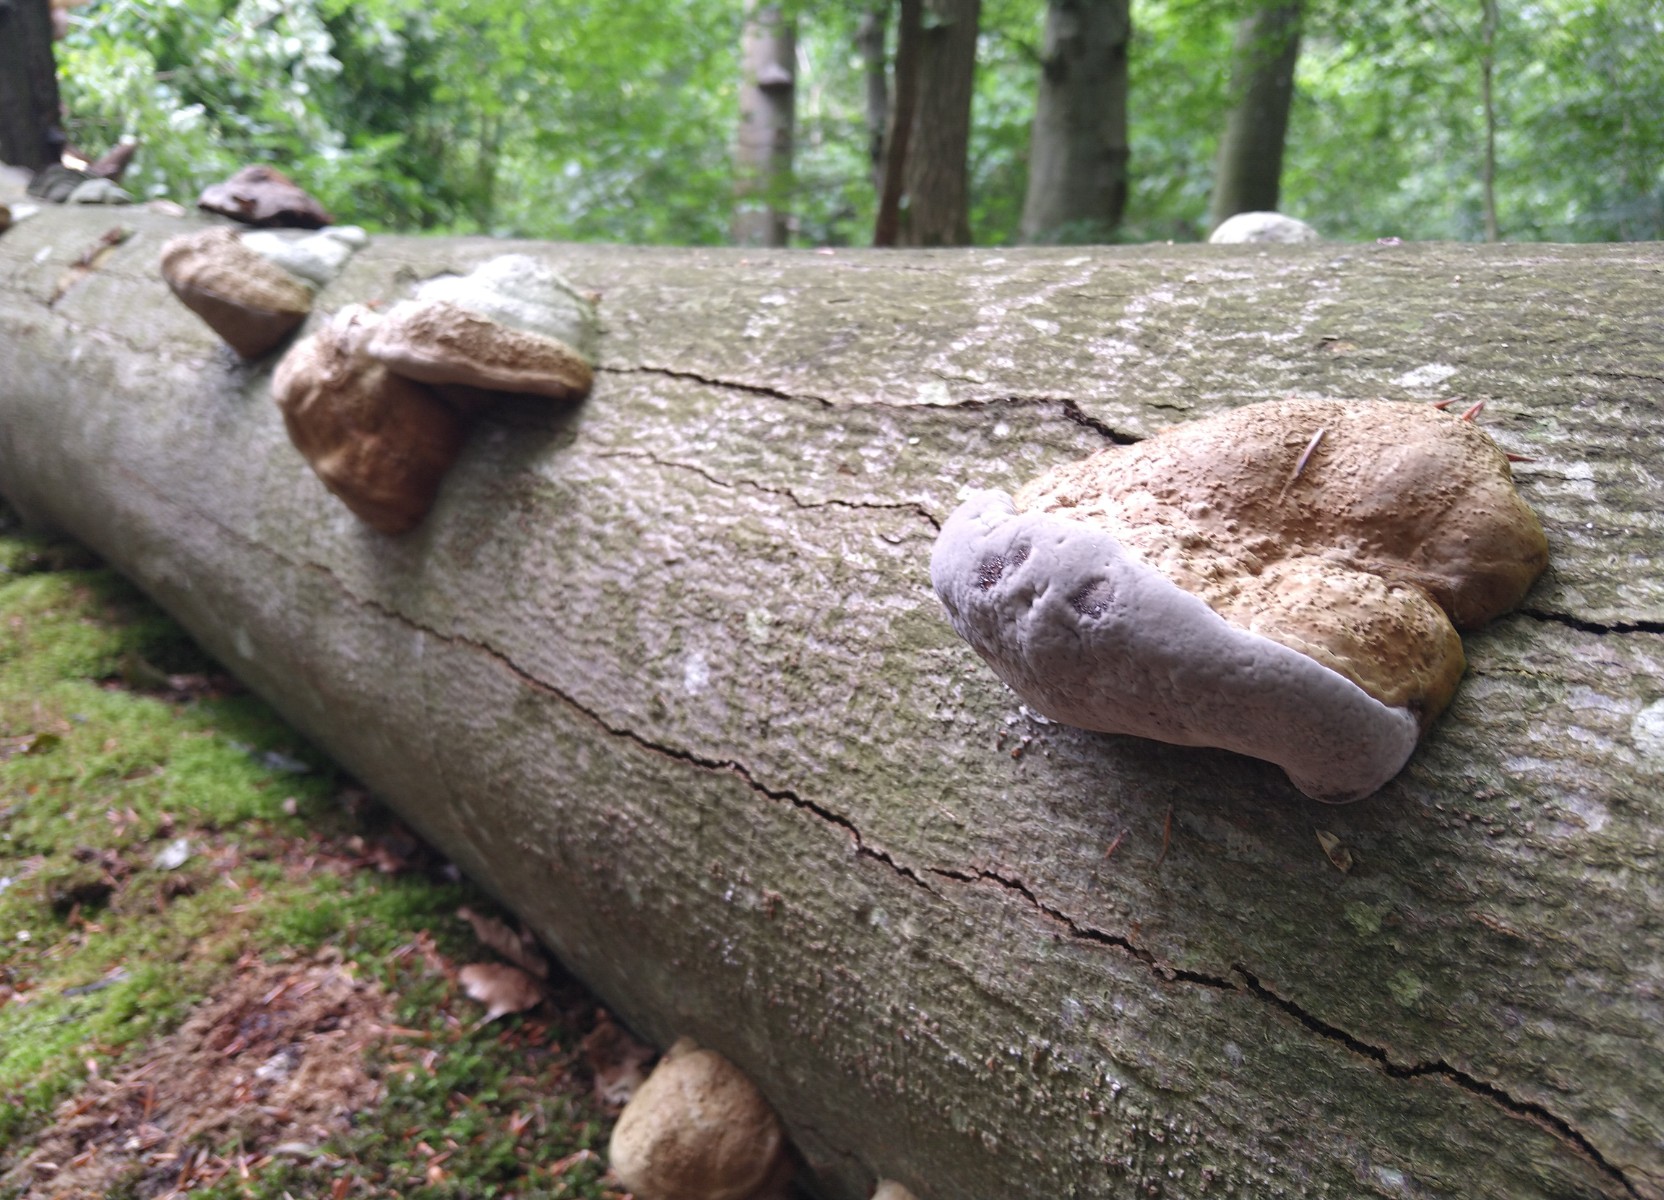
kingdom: Fungi
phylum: Basidiomycota
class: Agaricomycetes
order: Polyporales
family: Polyporaceae
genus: Fomes
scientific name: Fomes fomentarius
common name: tøndersvamp
